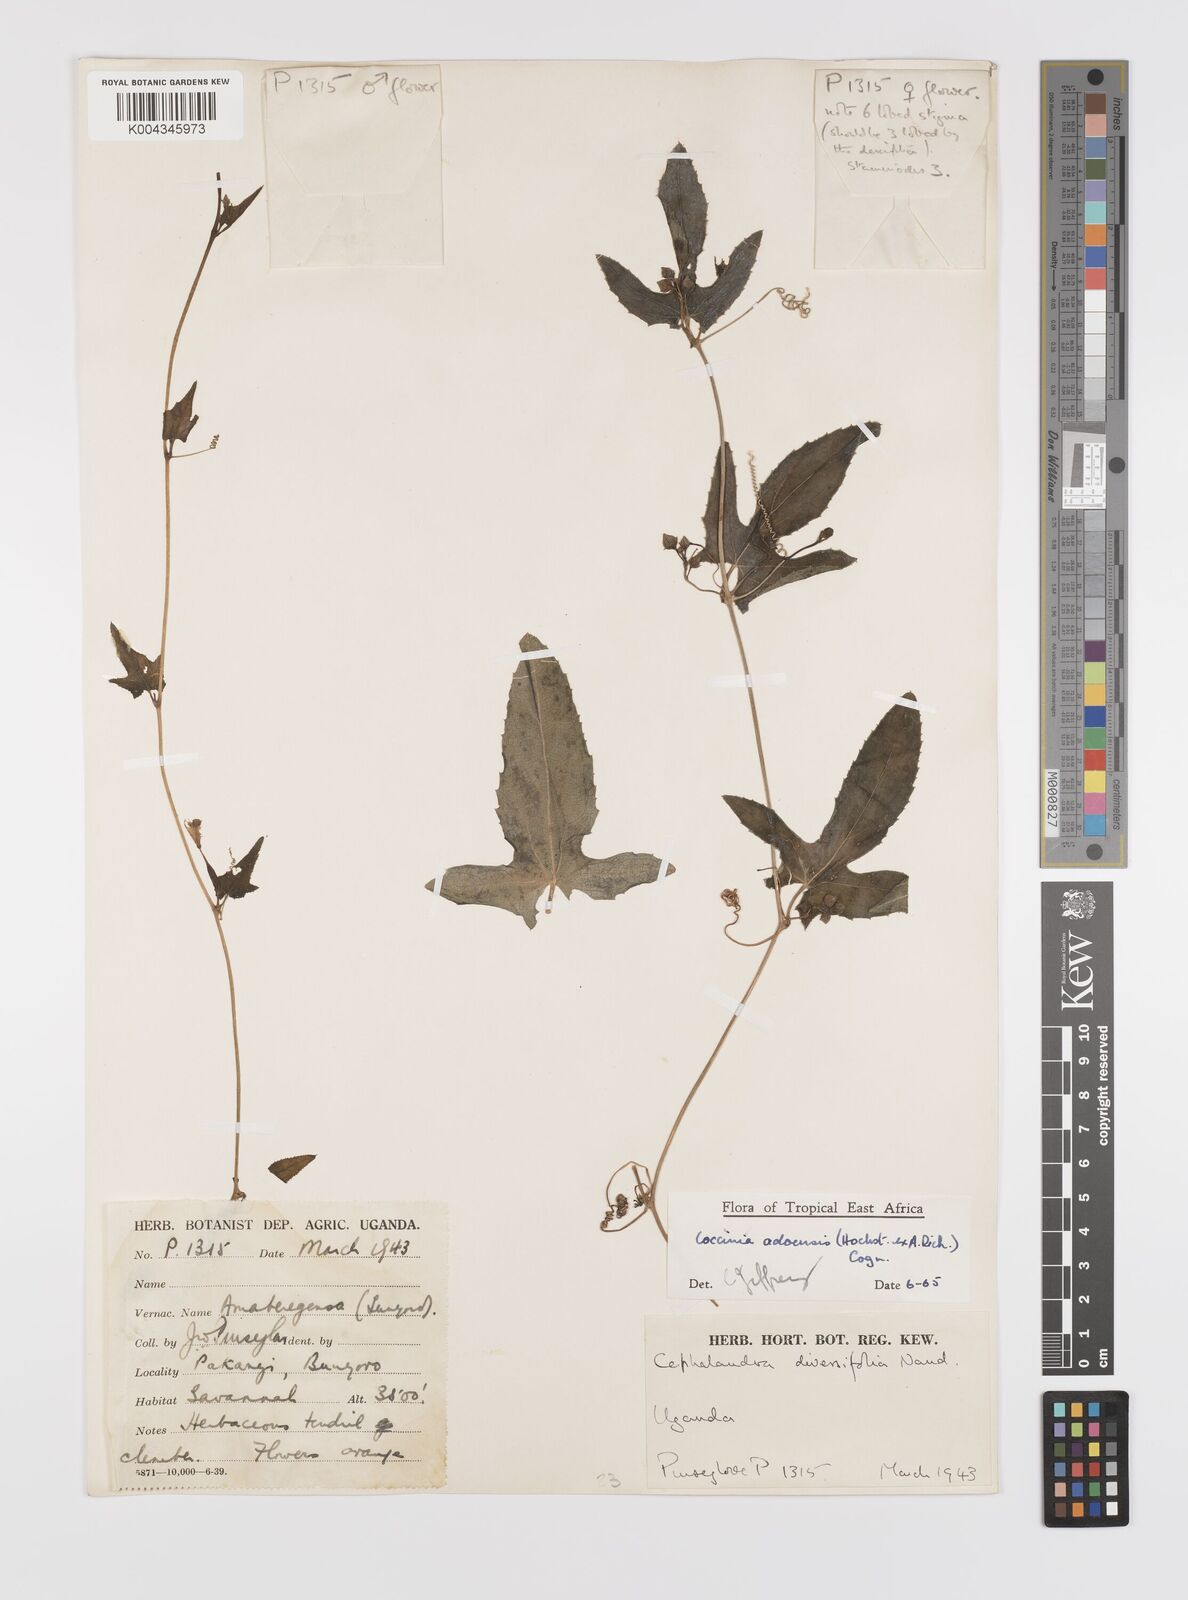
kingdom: Plantae
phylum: Tracheophyta
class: Magnoliopsida
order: Cucurbitales
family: Cucurbitaceae
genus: Coccinia
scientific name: Coccinia adoensis
